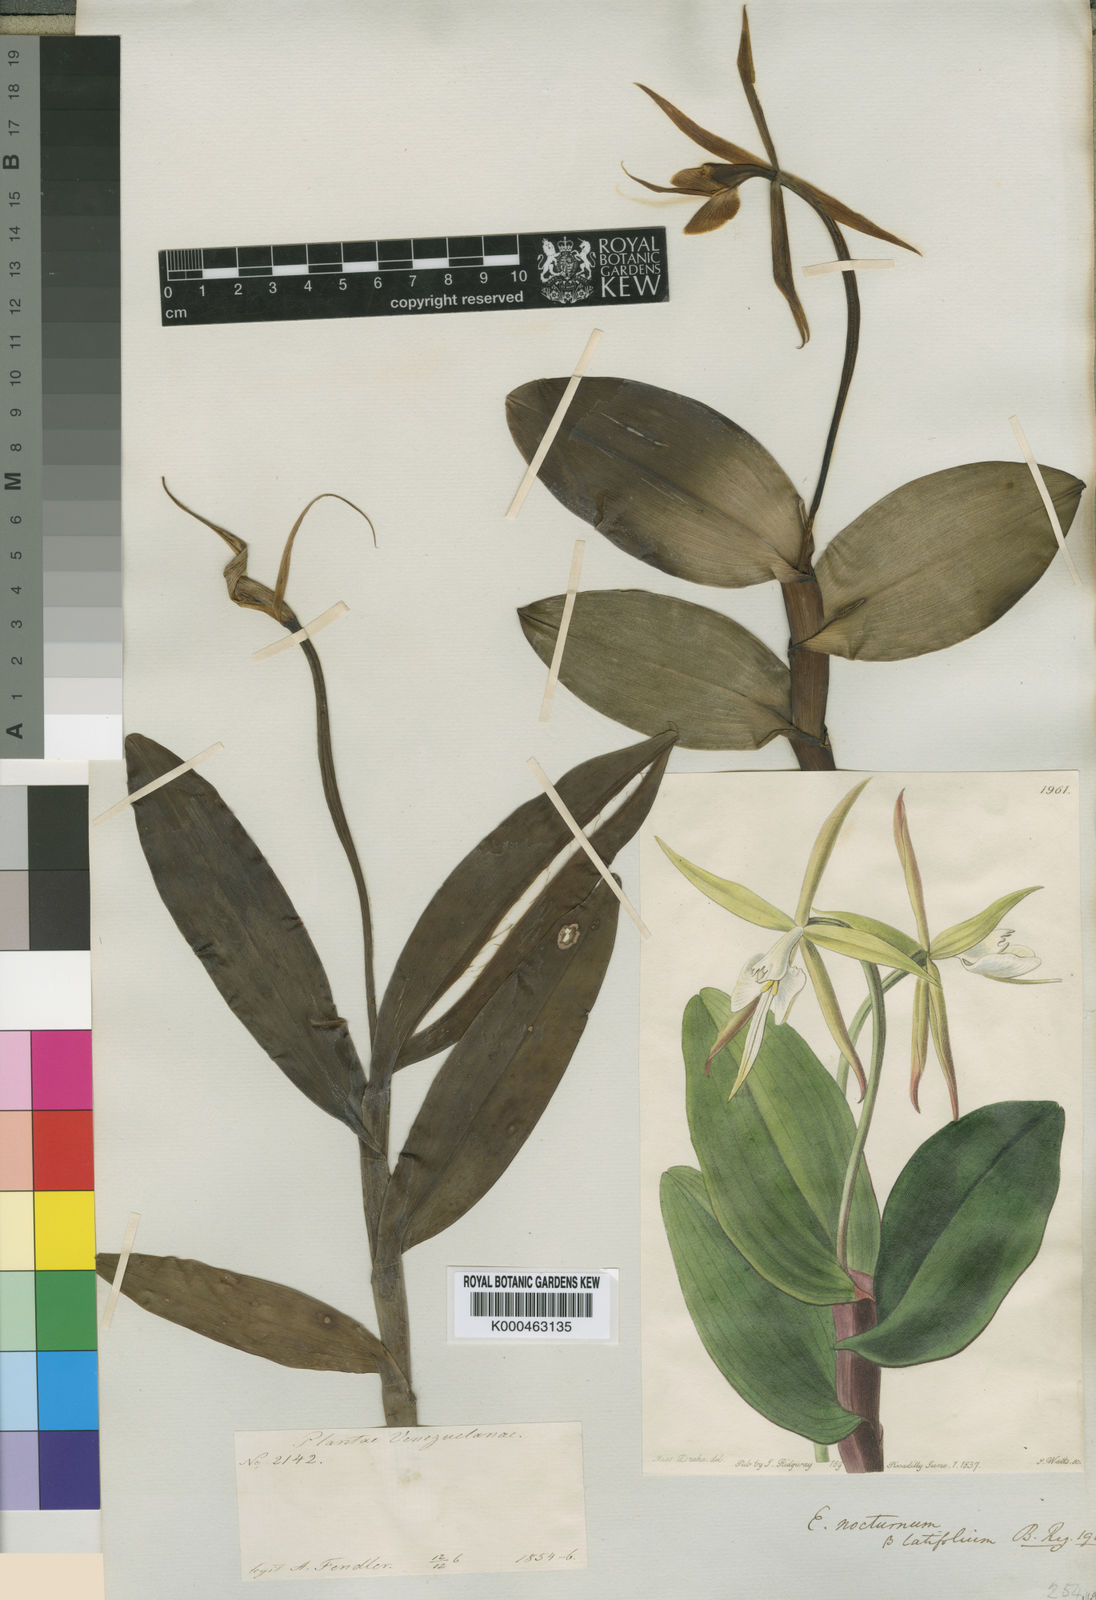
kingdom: Plantae
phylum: Tracheophyta
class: Liliopsida
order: Asparagales
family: Orchidaceae
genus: Epidendrum
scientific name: Epidendrum angustilobum
